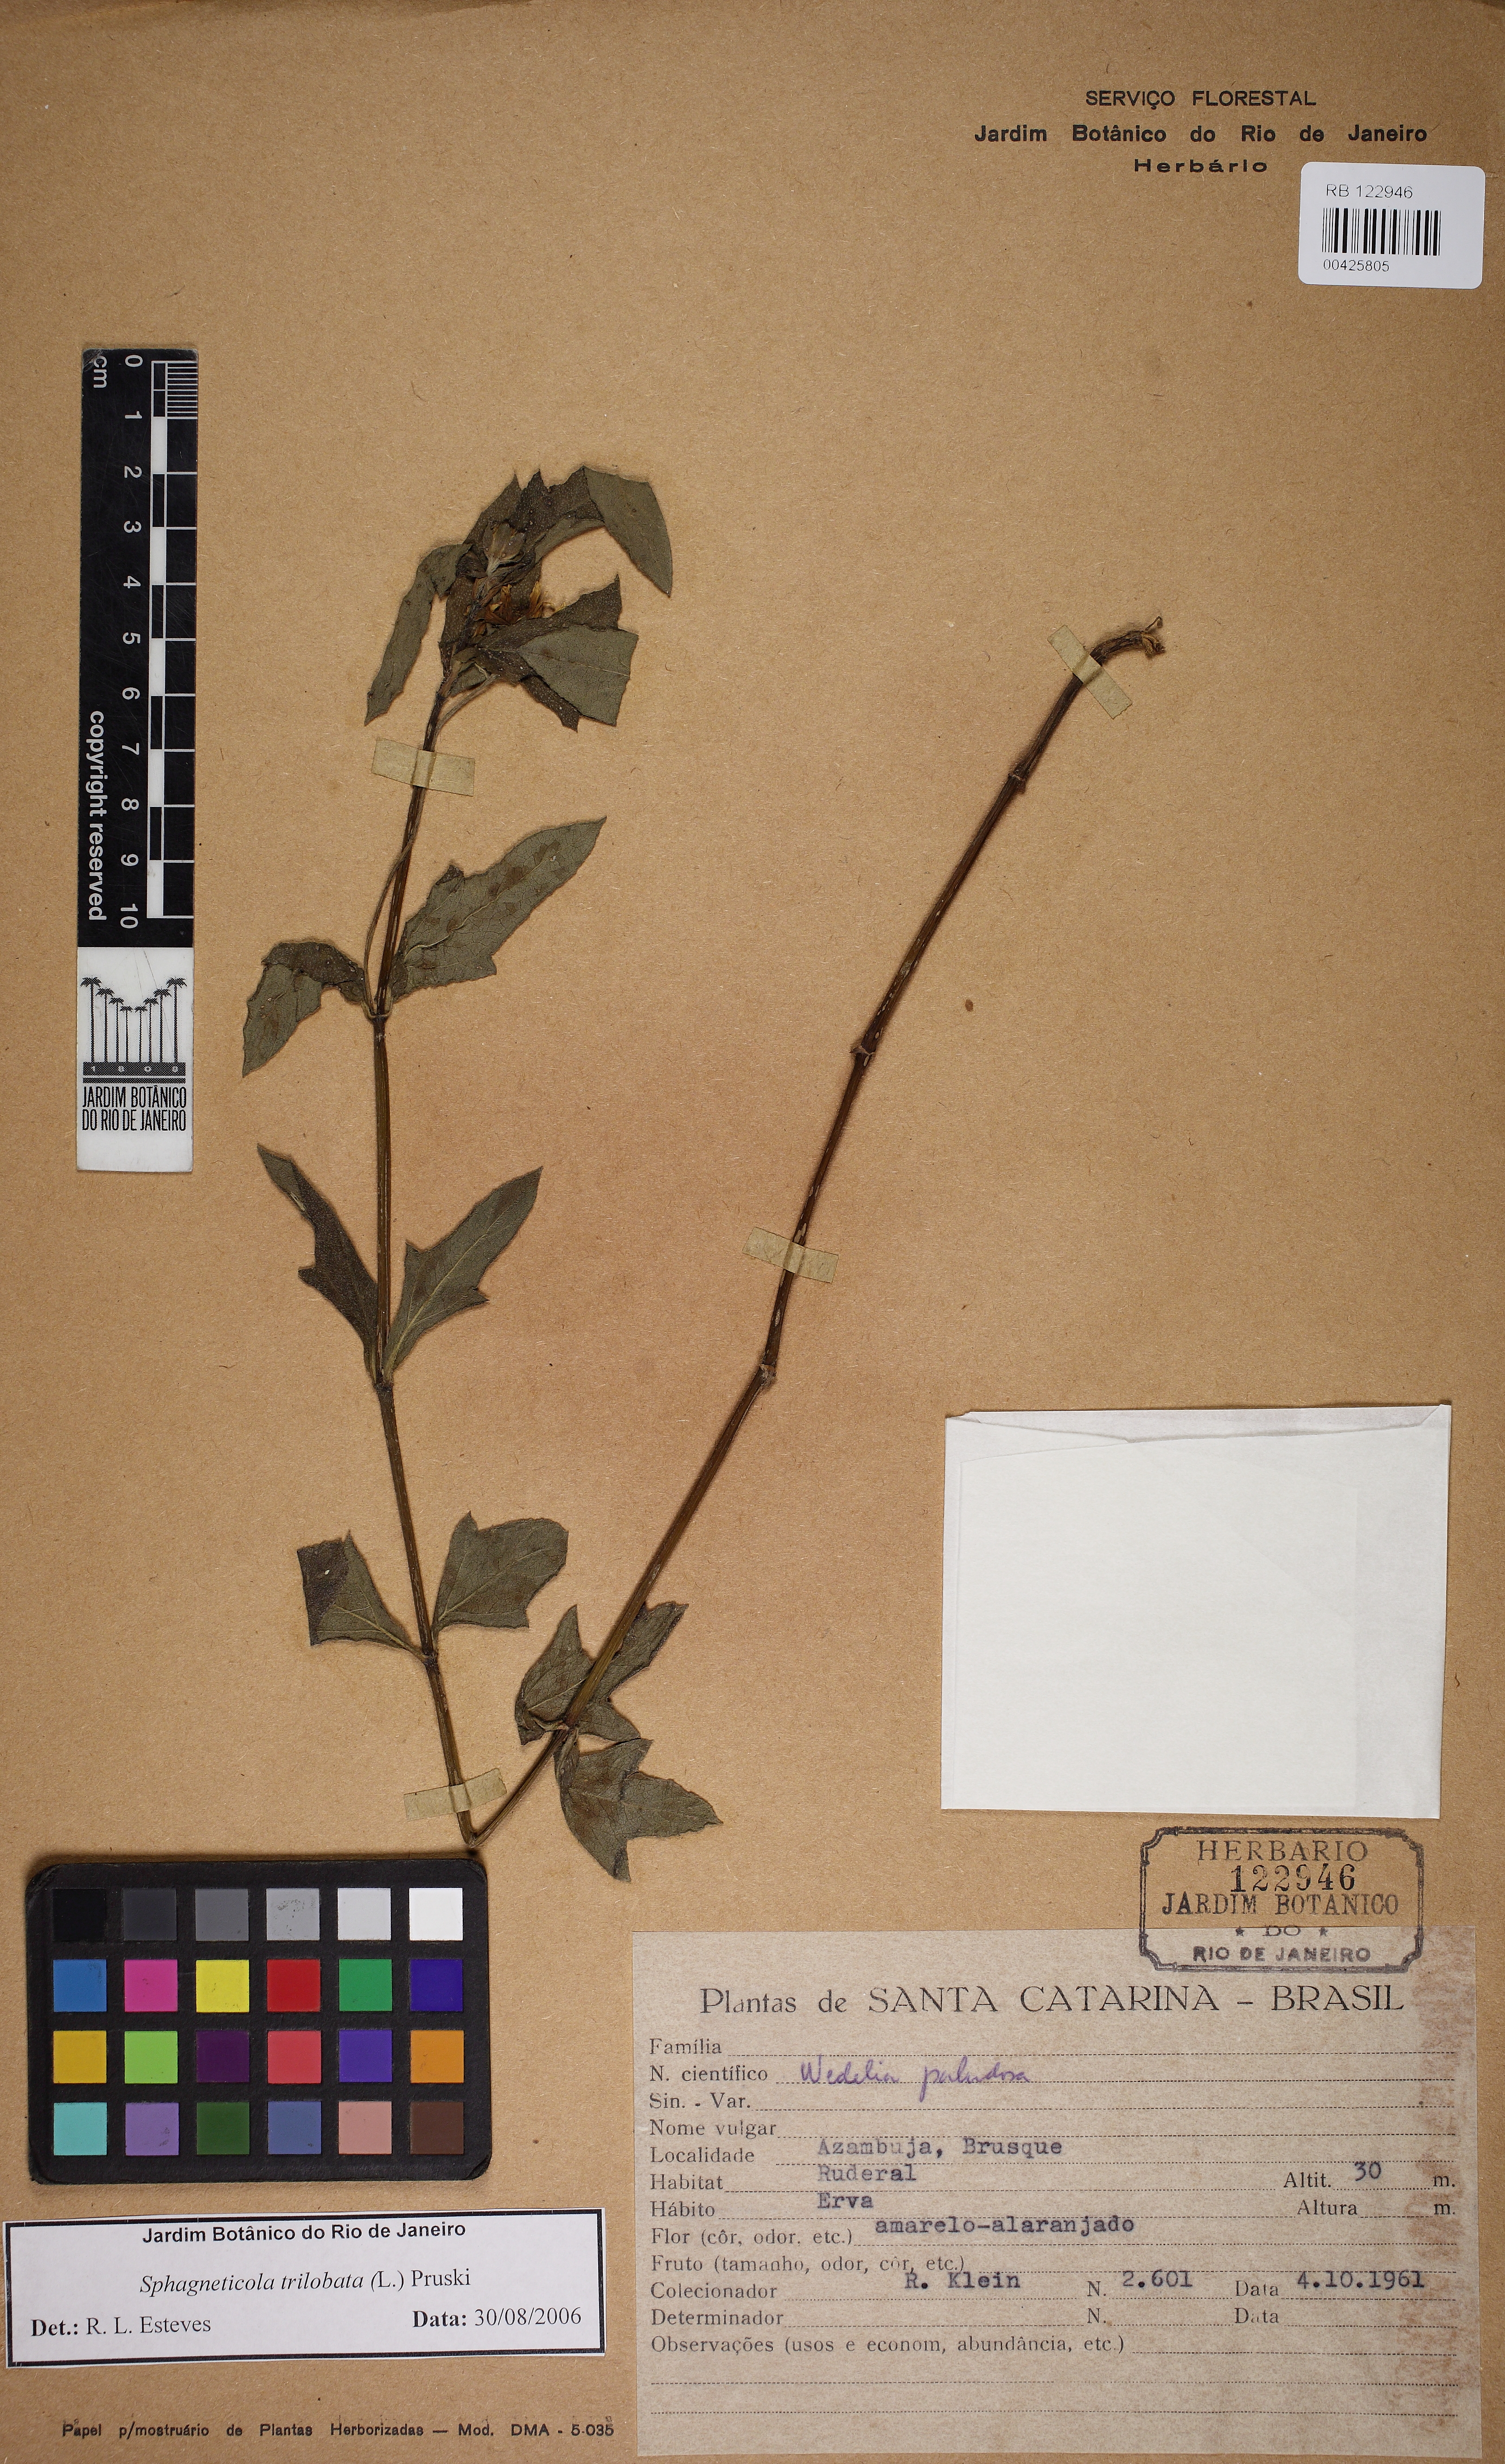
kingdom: Plantae
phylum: Tracheophyta
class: Magnoliopsida
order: Asterales
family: Asteraceae
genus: Sphagneticola
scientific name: Sphagneticola trilobata
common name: Bay biscayne creeping-oxeye
